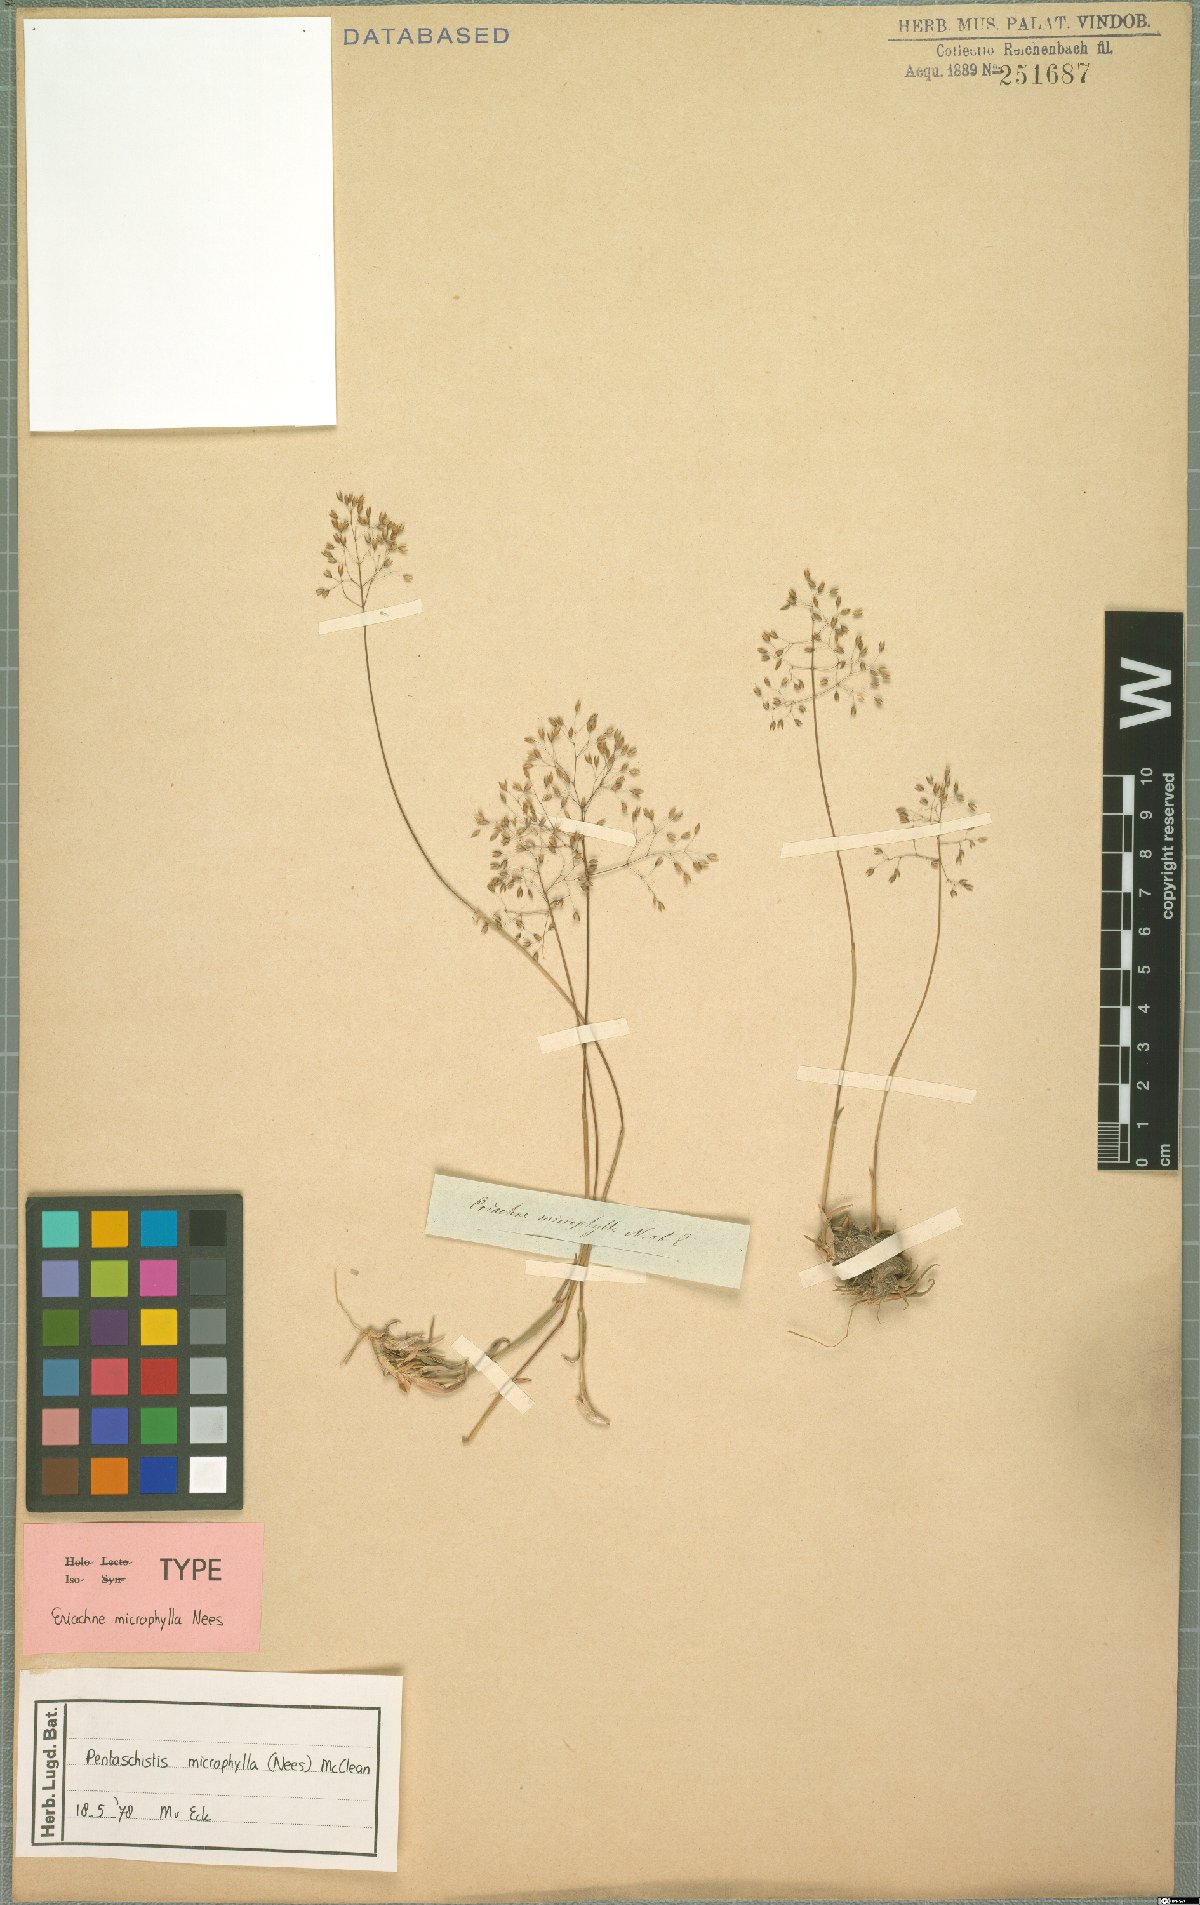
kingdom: Plantae
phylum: Tracheophyta
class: Liliopsida
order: Poales
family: Poaceae
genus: Pentameris
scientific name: Pentameris microphylla
